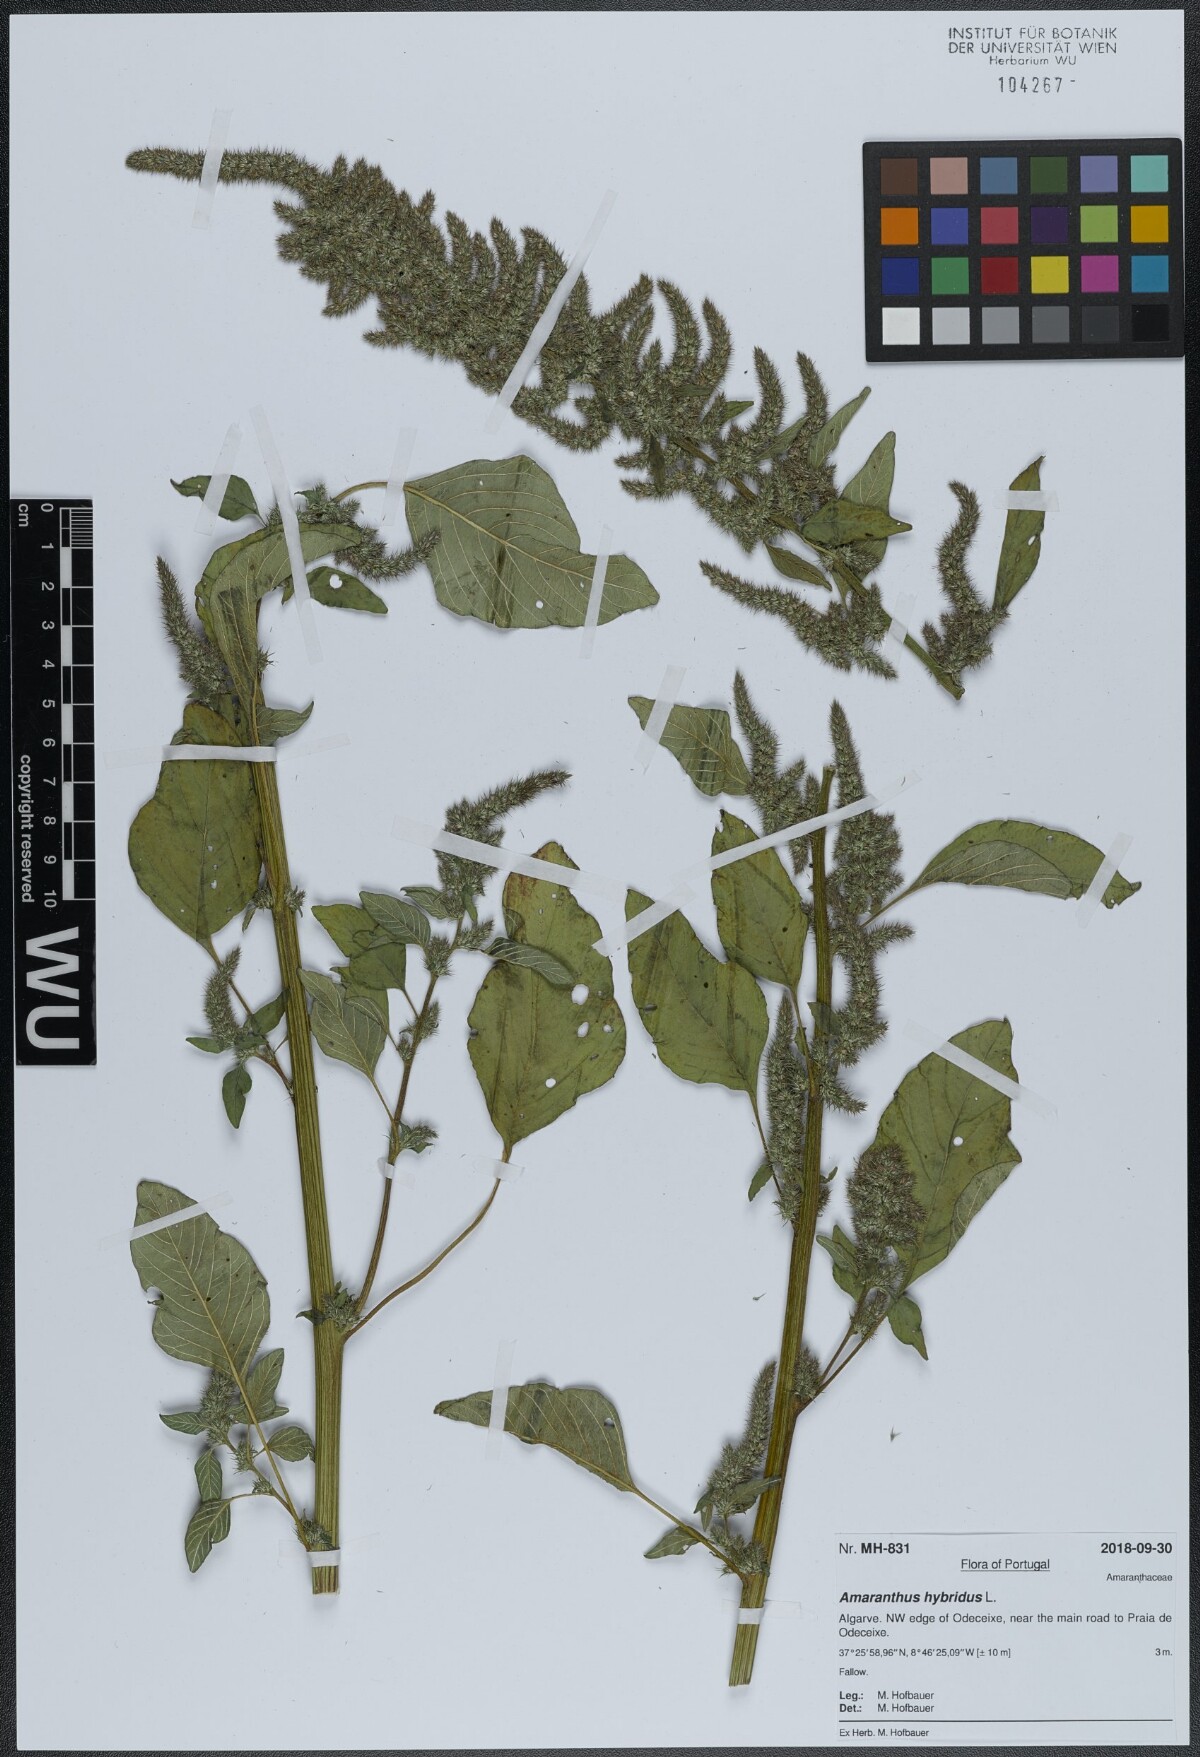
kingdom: Plantae
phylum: Tracheophyta
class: Magnoliopsida
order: Caryophyllales
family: Amaranthaceae
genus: Amaranthus
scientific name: Amaranthus hybridus
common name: Green amaranth
